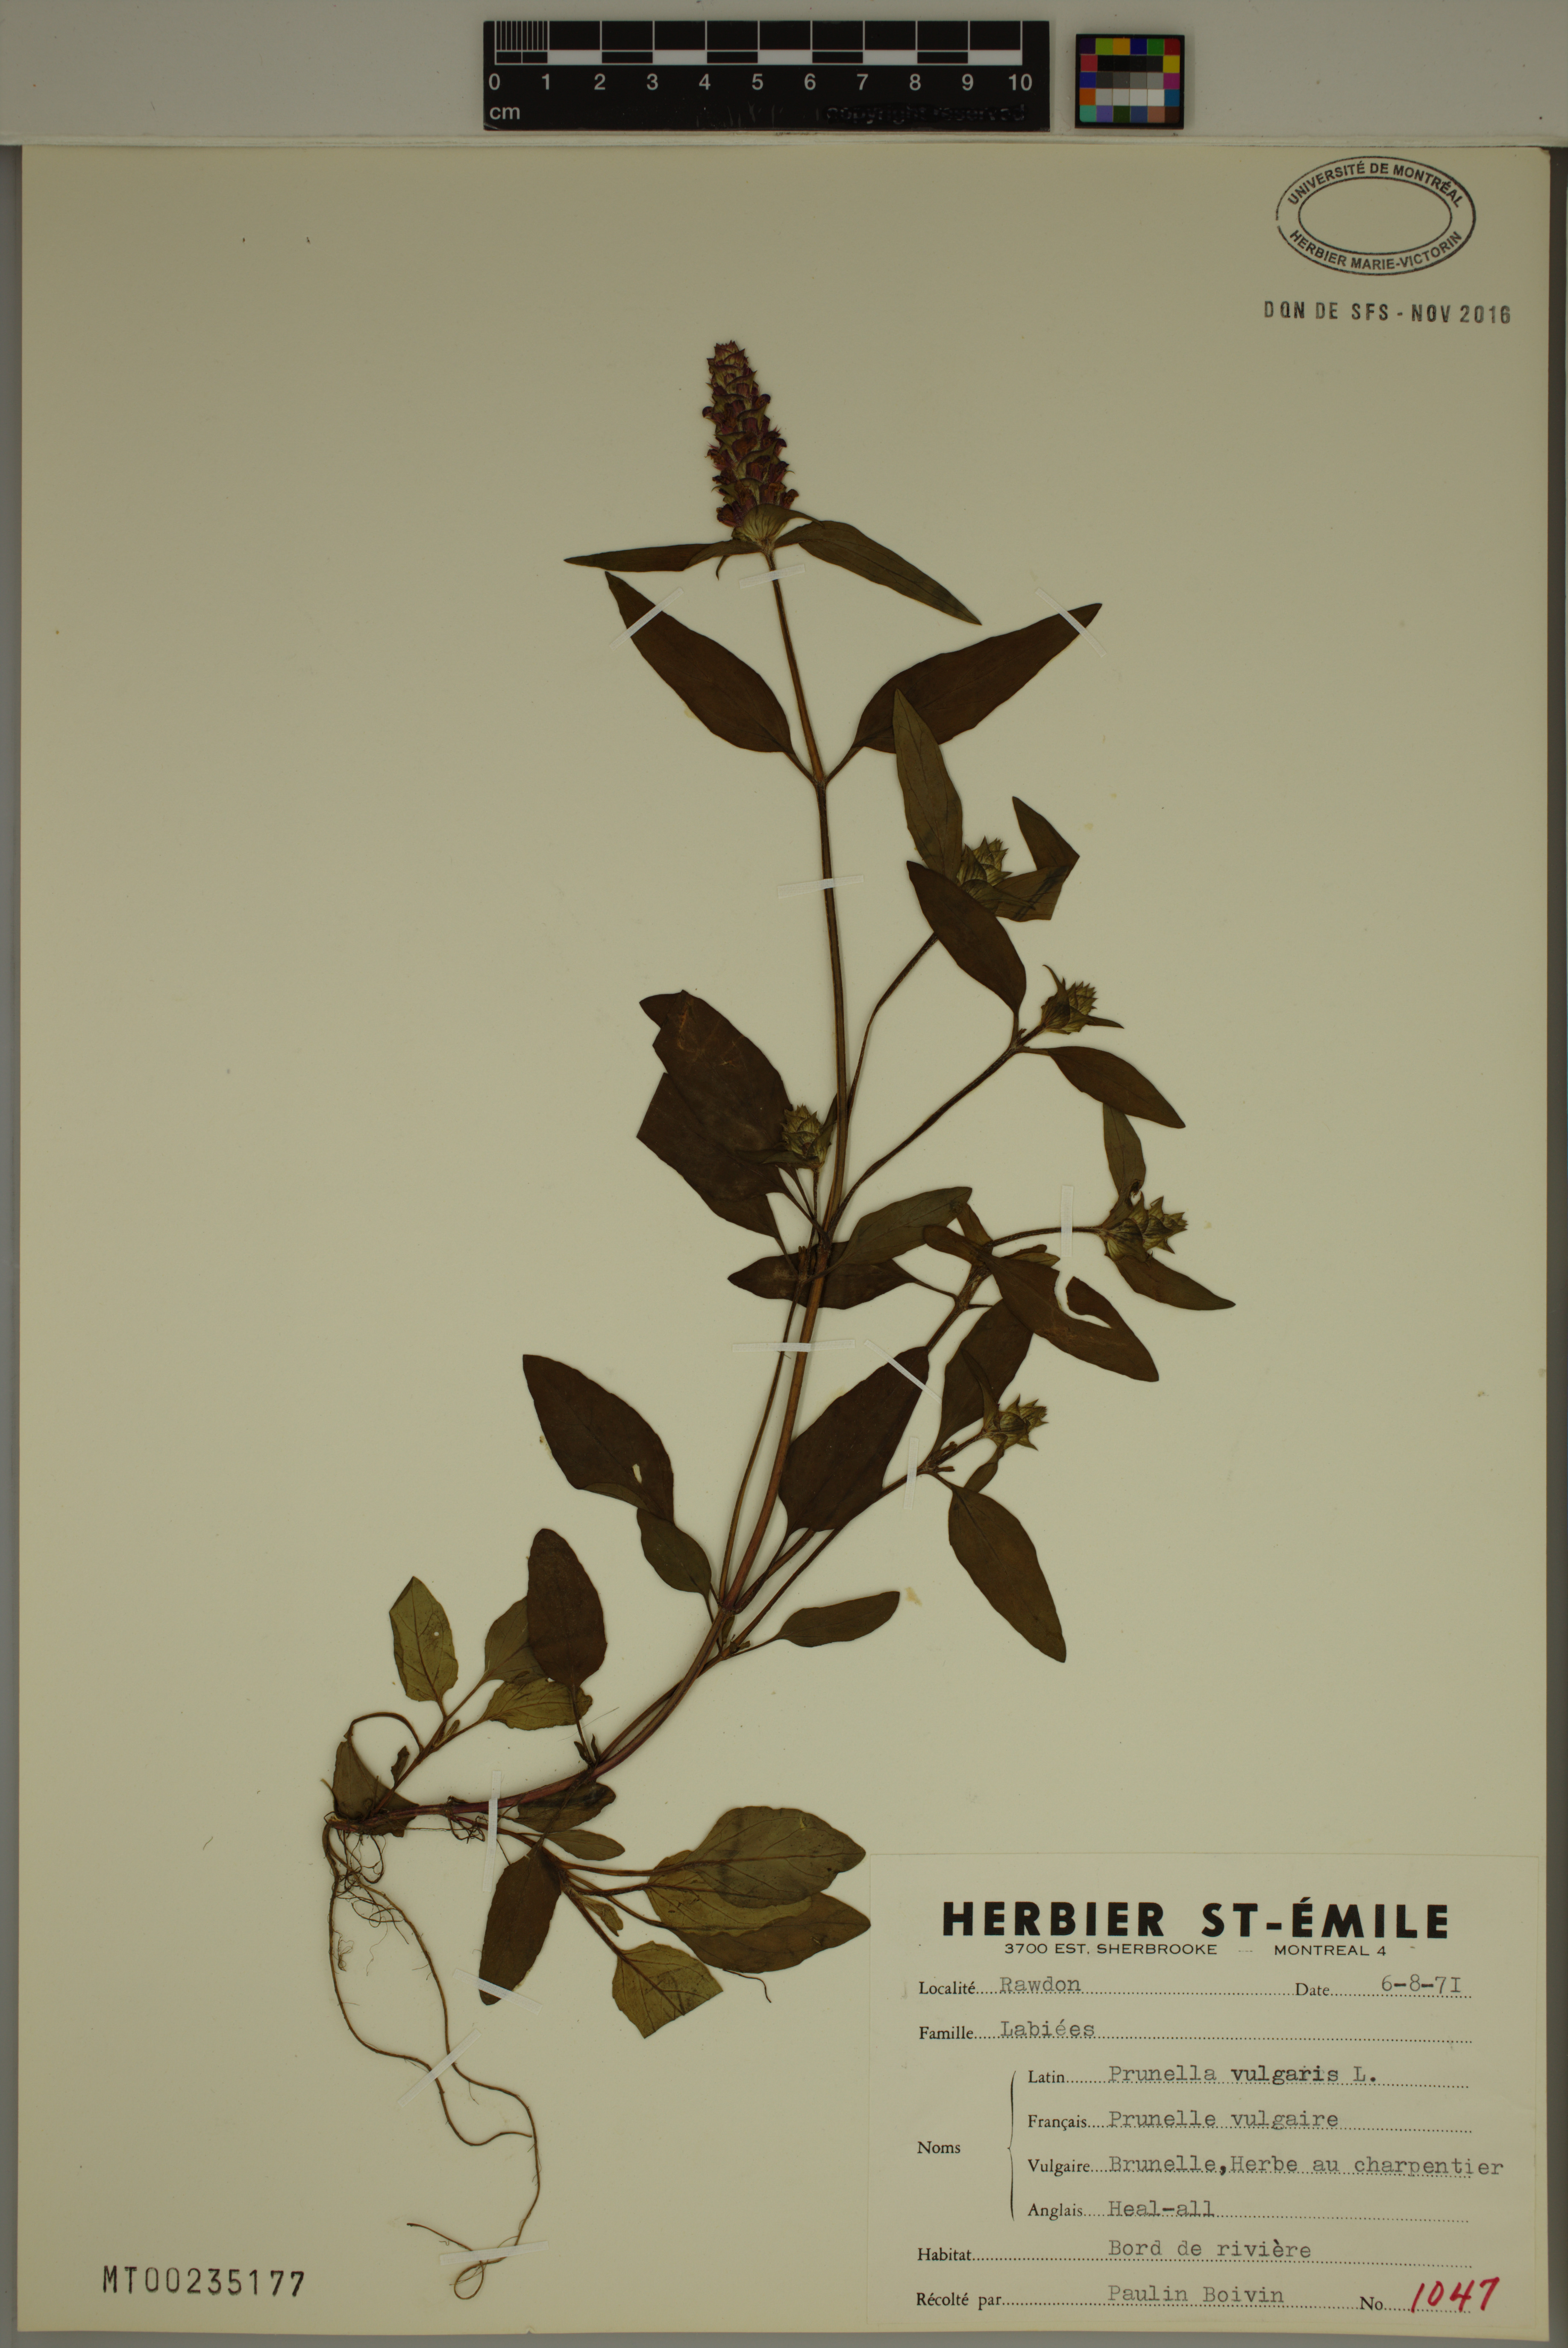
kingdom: Plantae
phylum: Tracheophyta
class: Magnoliopsida
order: Lamiales
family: Lamiaceae
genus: Prunella
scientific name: Prunella vulgaris
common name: Heal-all
